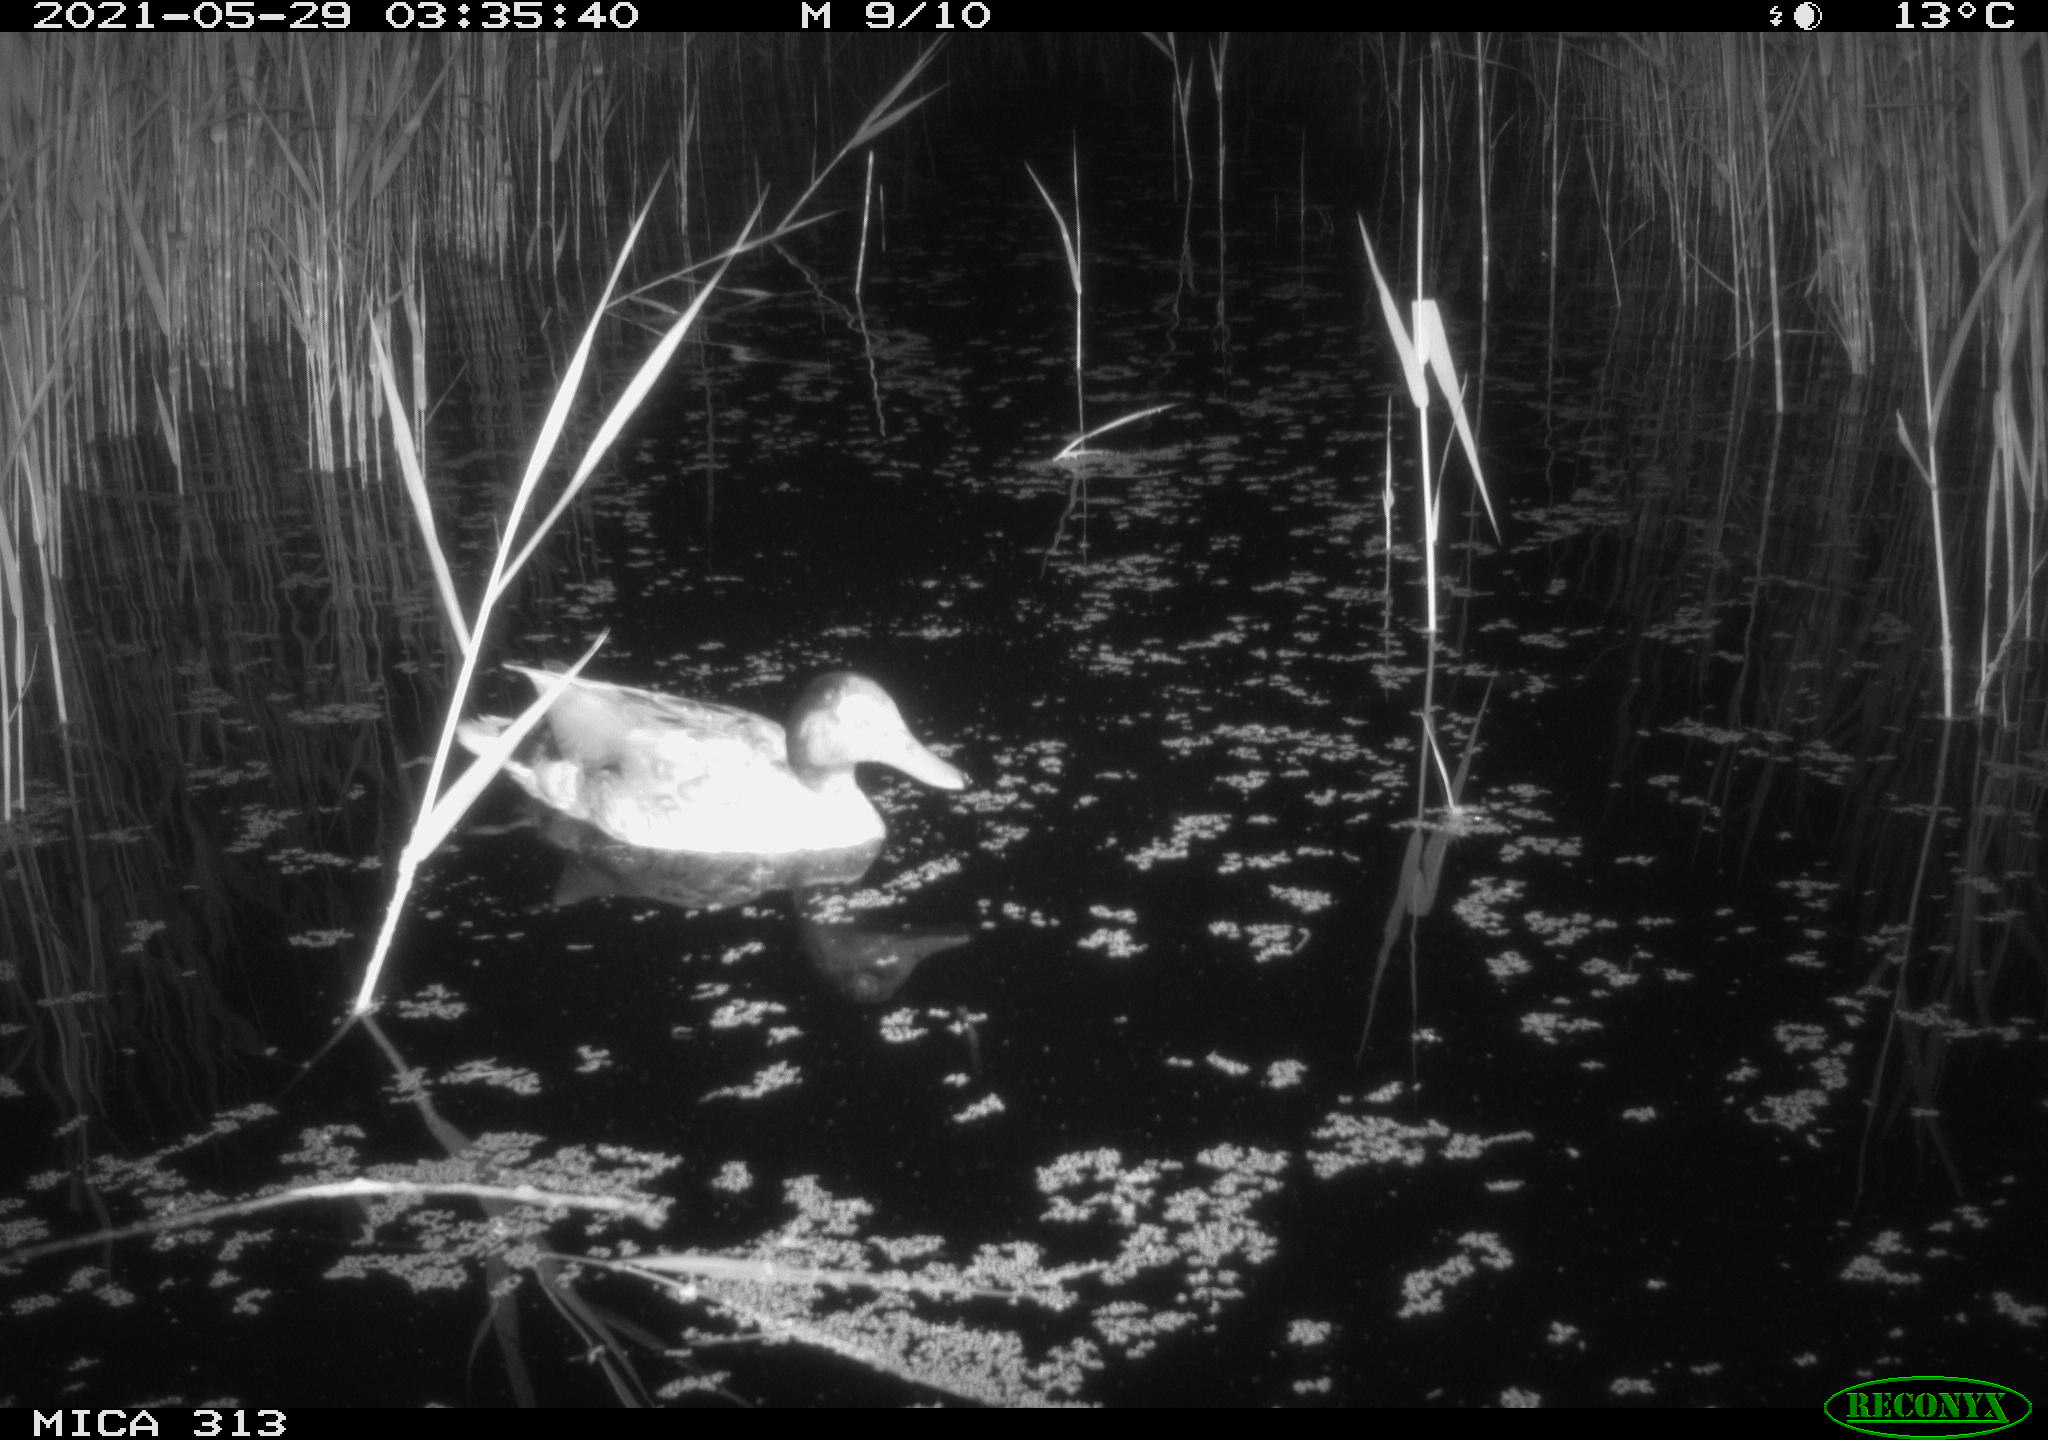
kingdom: Animalia
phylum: Chordata
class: Aves
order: Anseriformes
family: Anatidae
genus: Anas
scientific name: Anas platyrhynchos
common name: Mallard
